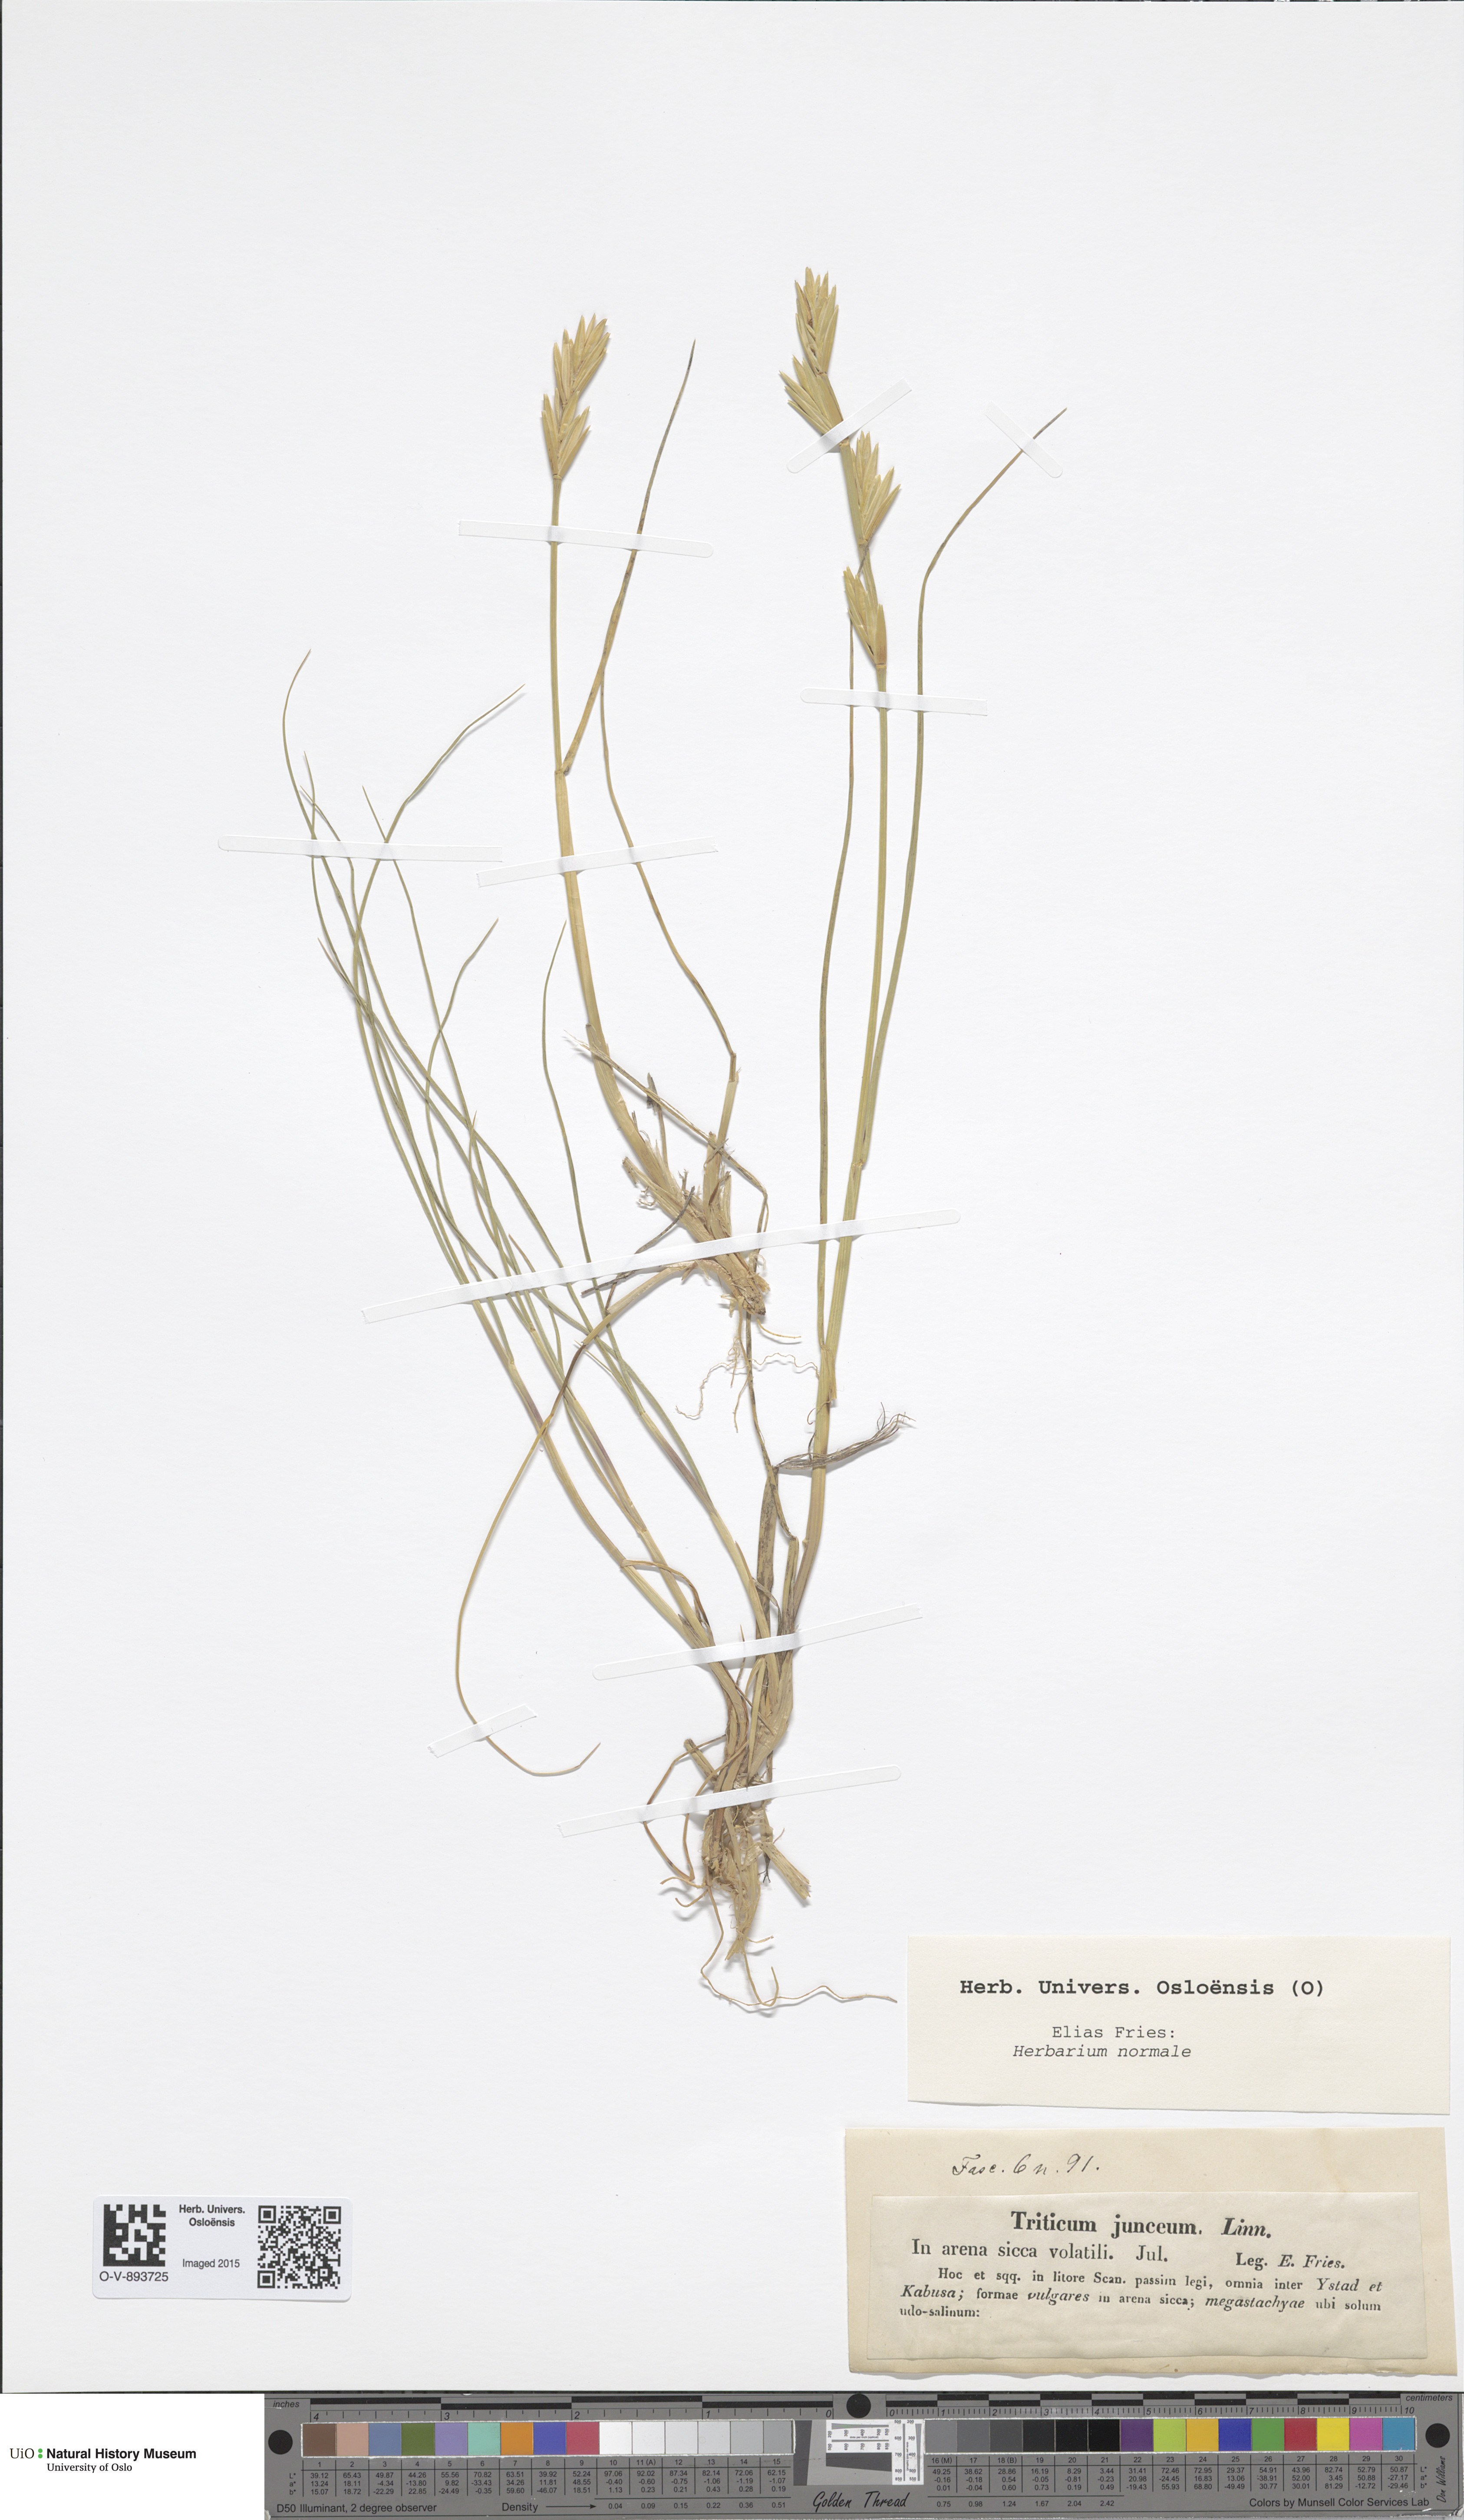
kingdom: Plantae
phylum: Tracheophyta
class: Liliopsida
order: Poales
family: Poaceae
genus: Thinopyrum
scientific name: Thinopyrum junceum
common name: Russian wheatgrass
